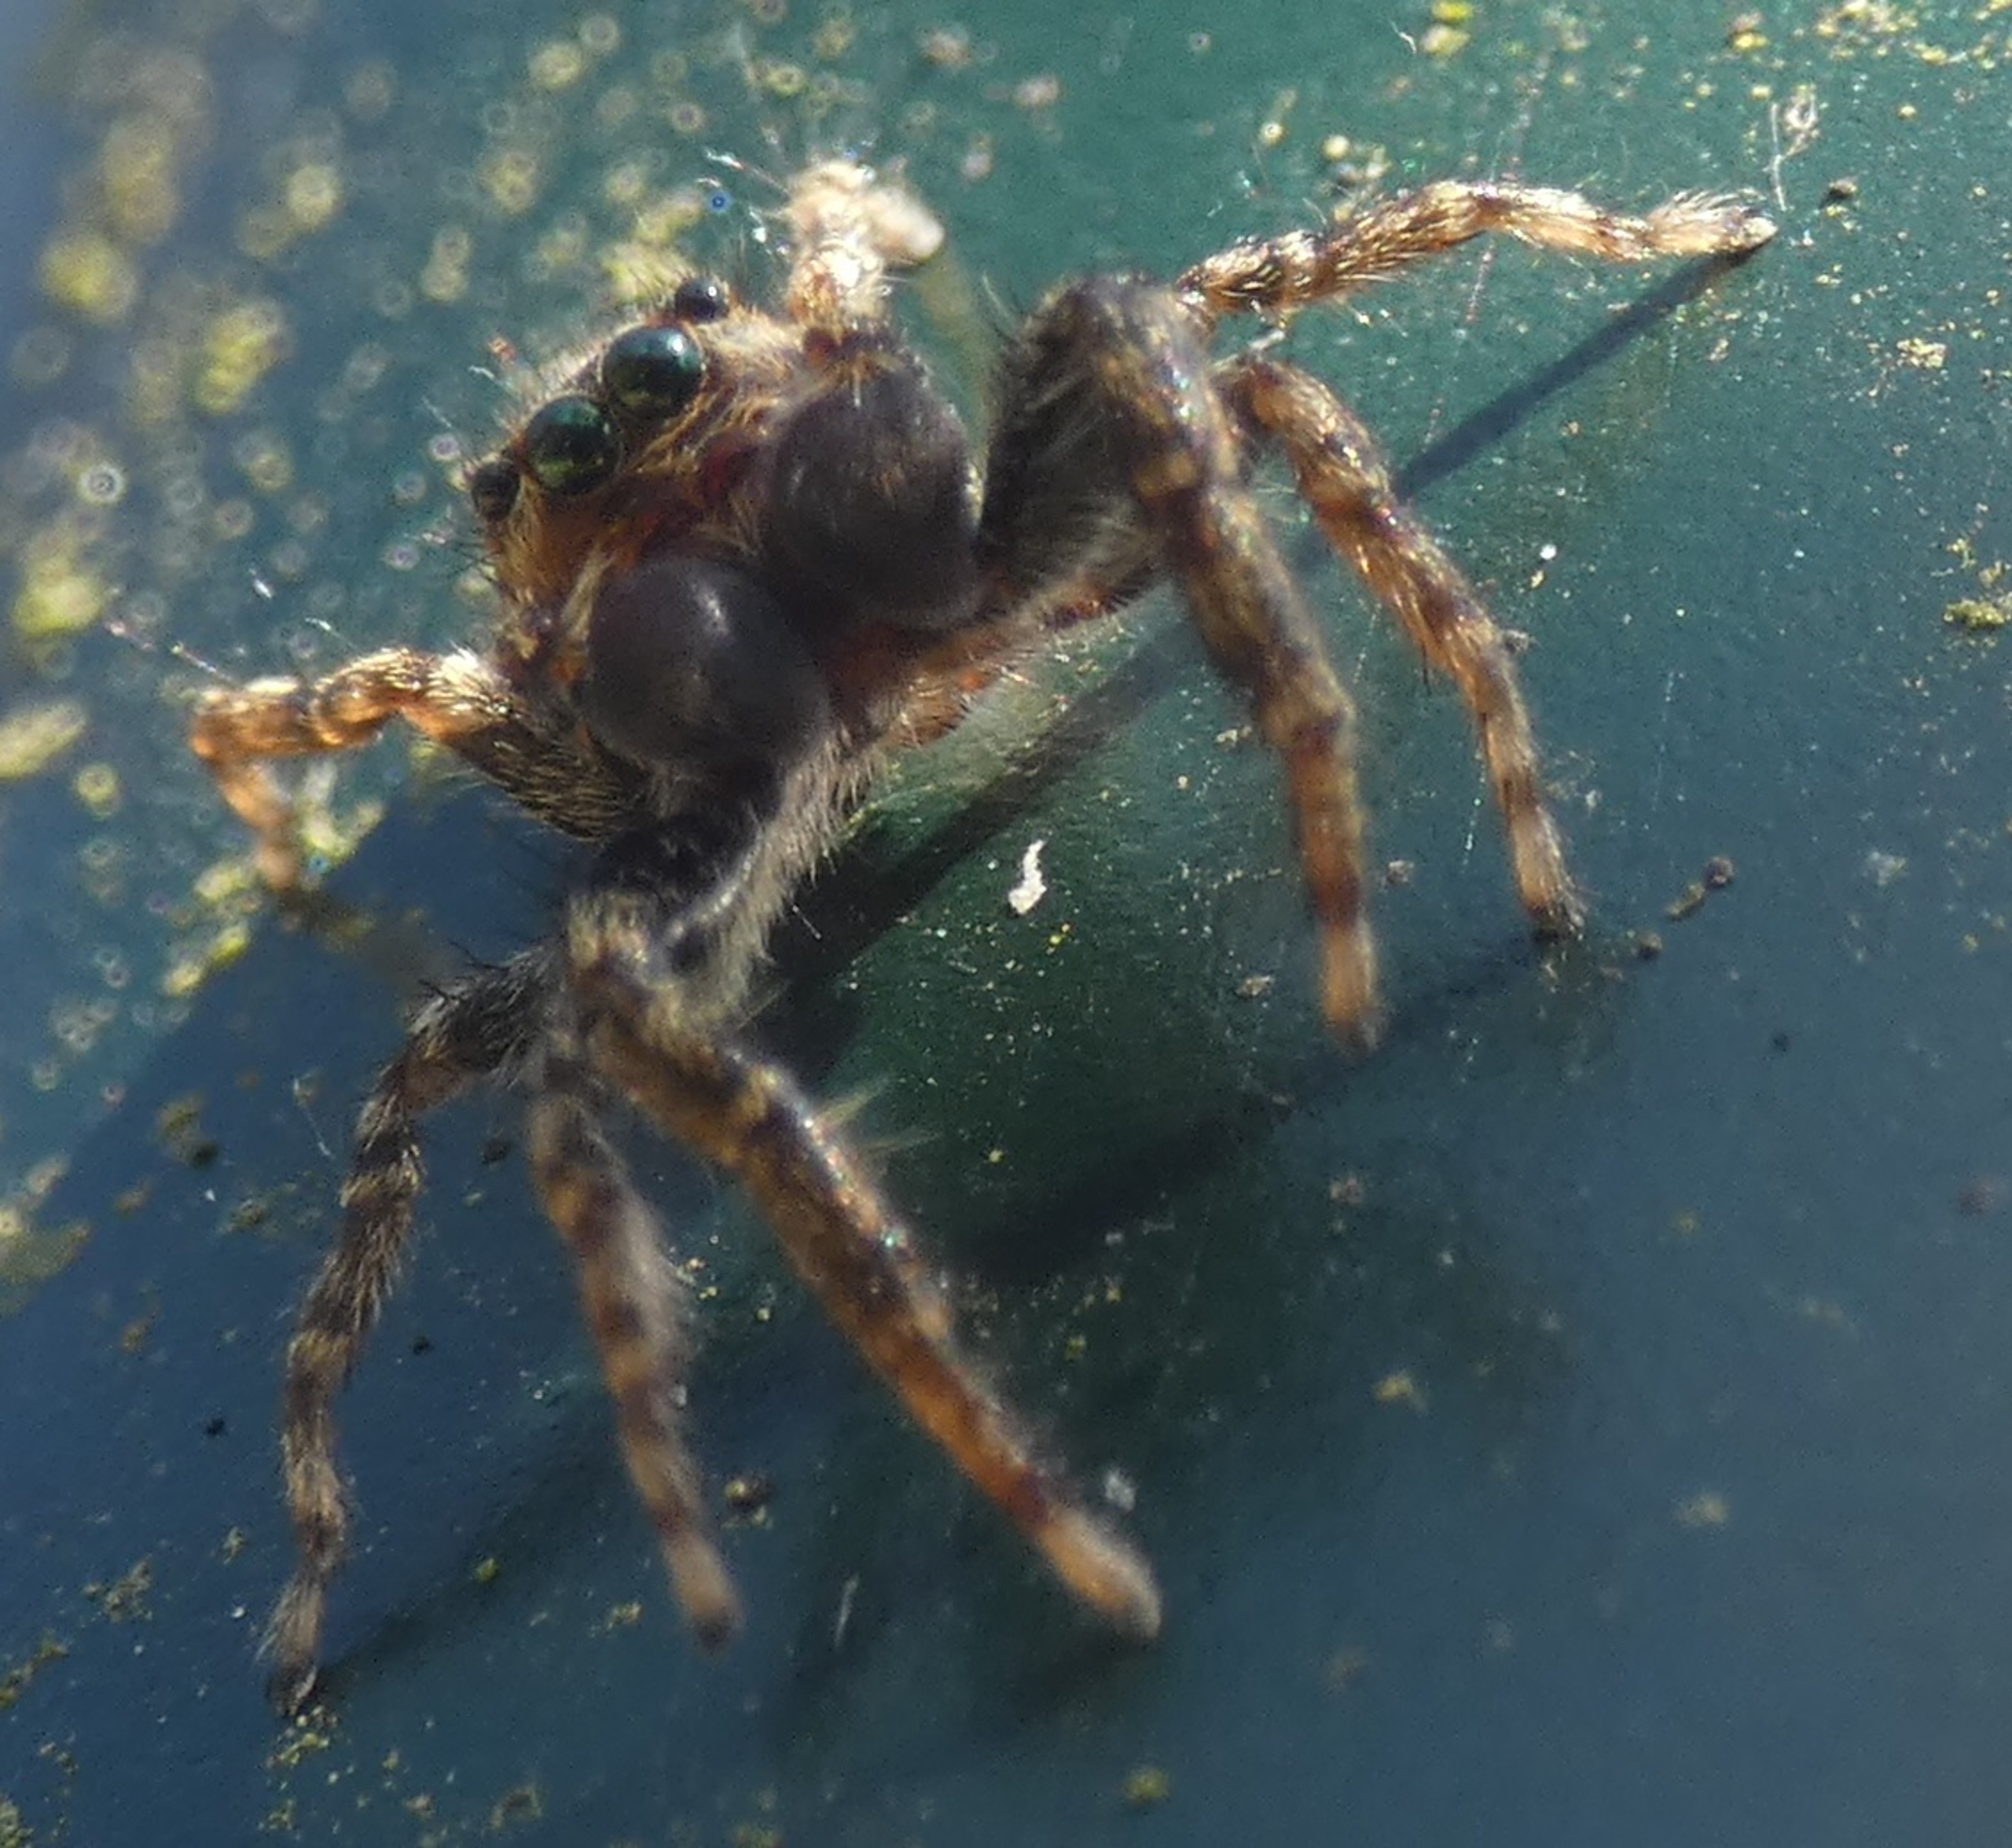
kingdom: Animalia
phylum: Arthropoda
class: Arachnida
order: Araneae
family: Salticidae
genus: Marpissa
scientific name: Marpissa muscosa
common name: Stor springedderkop
